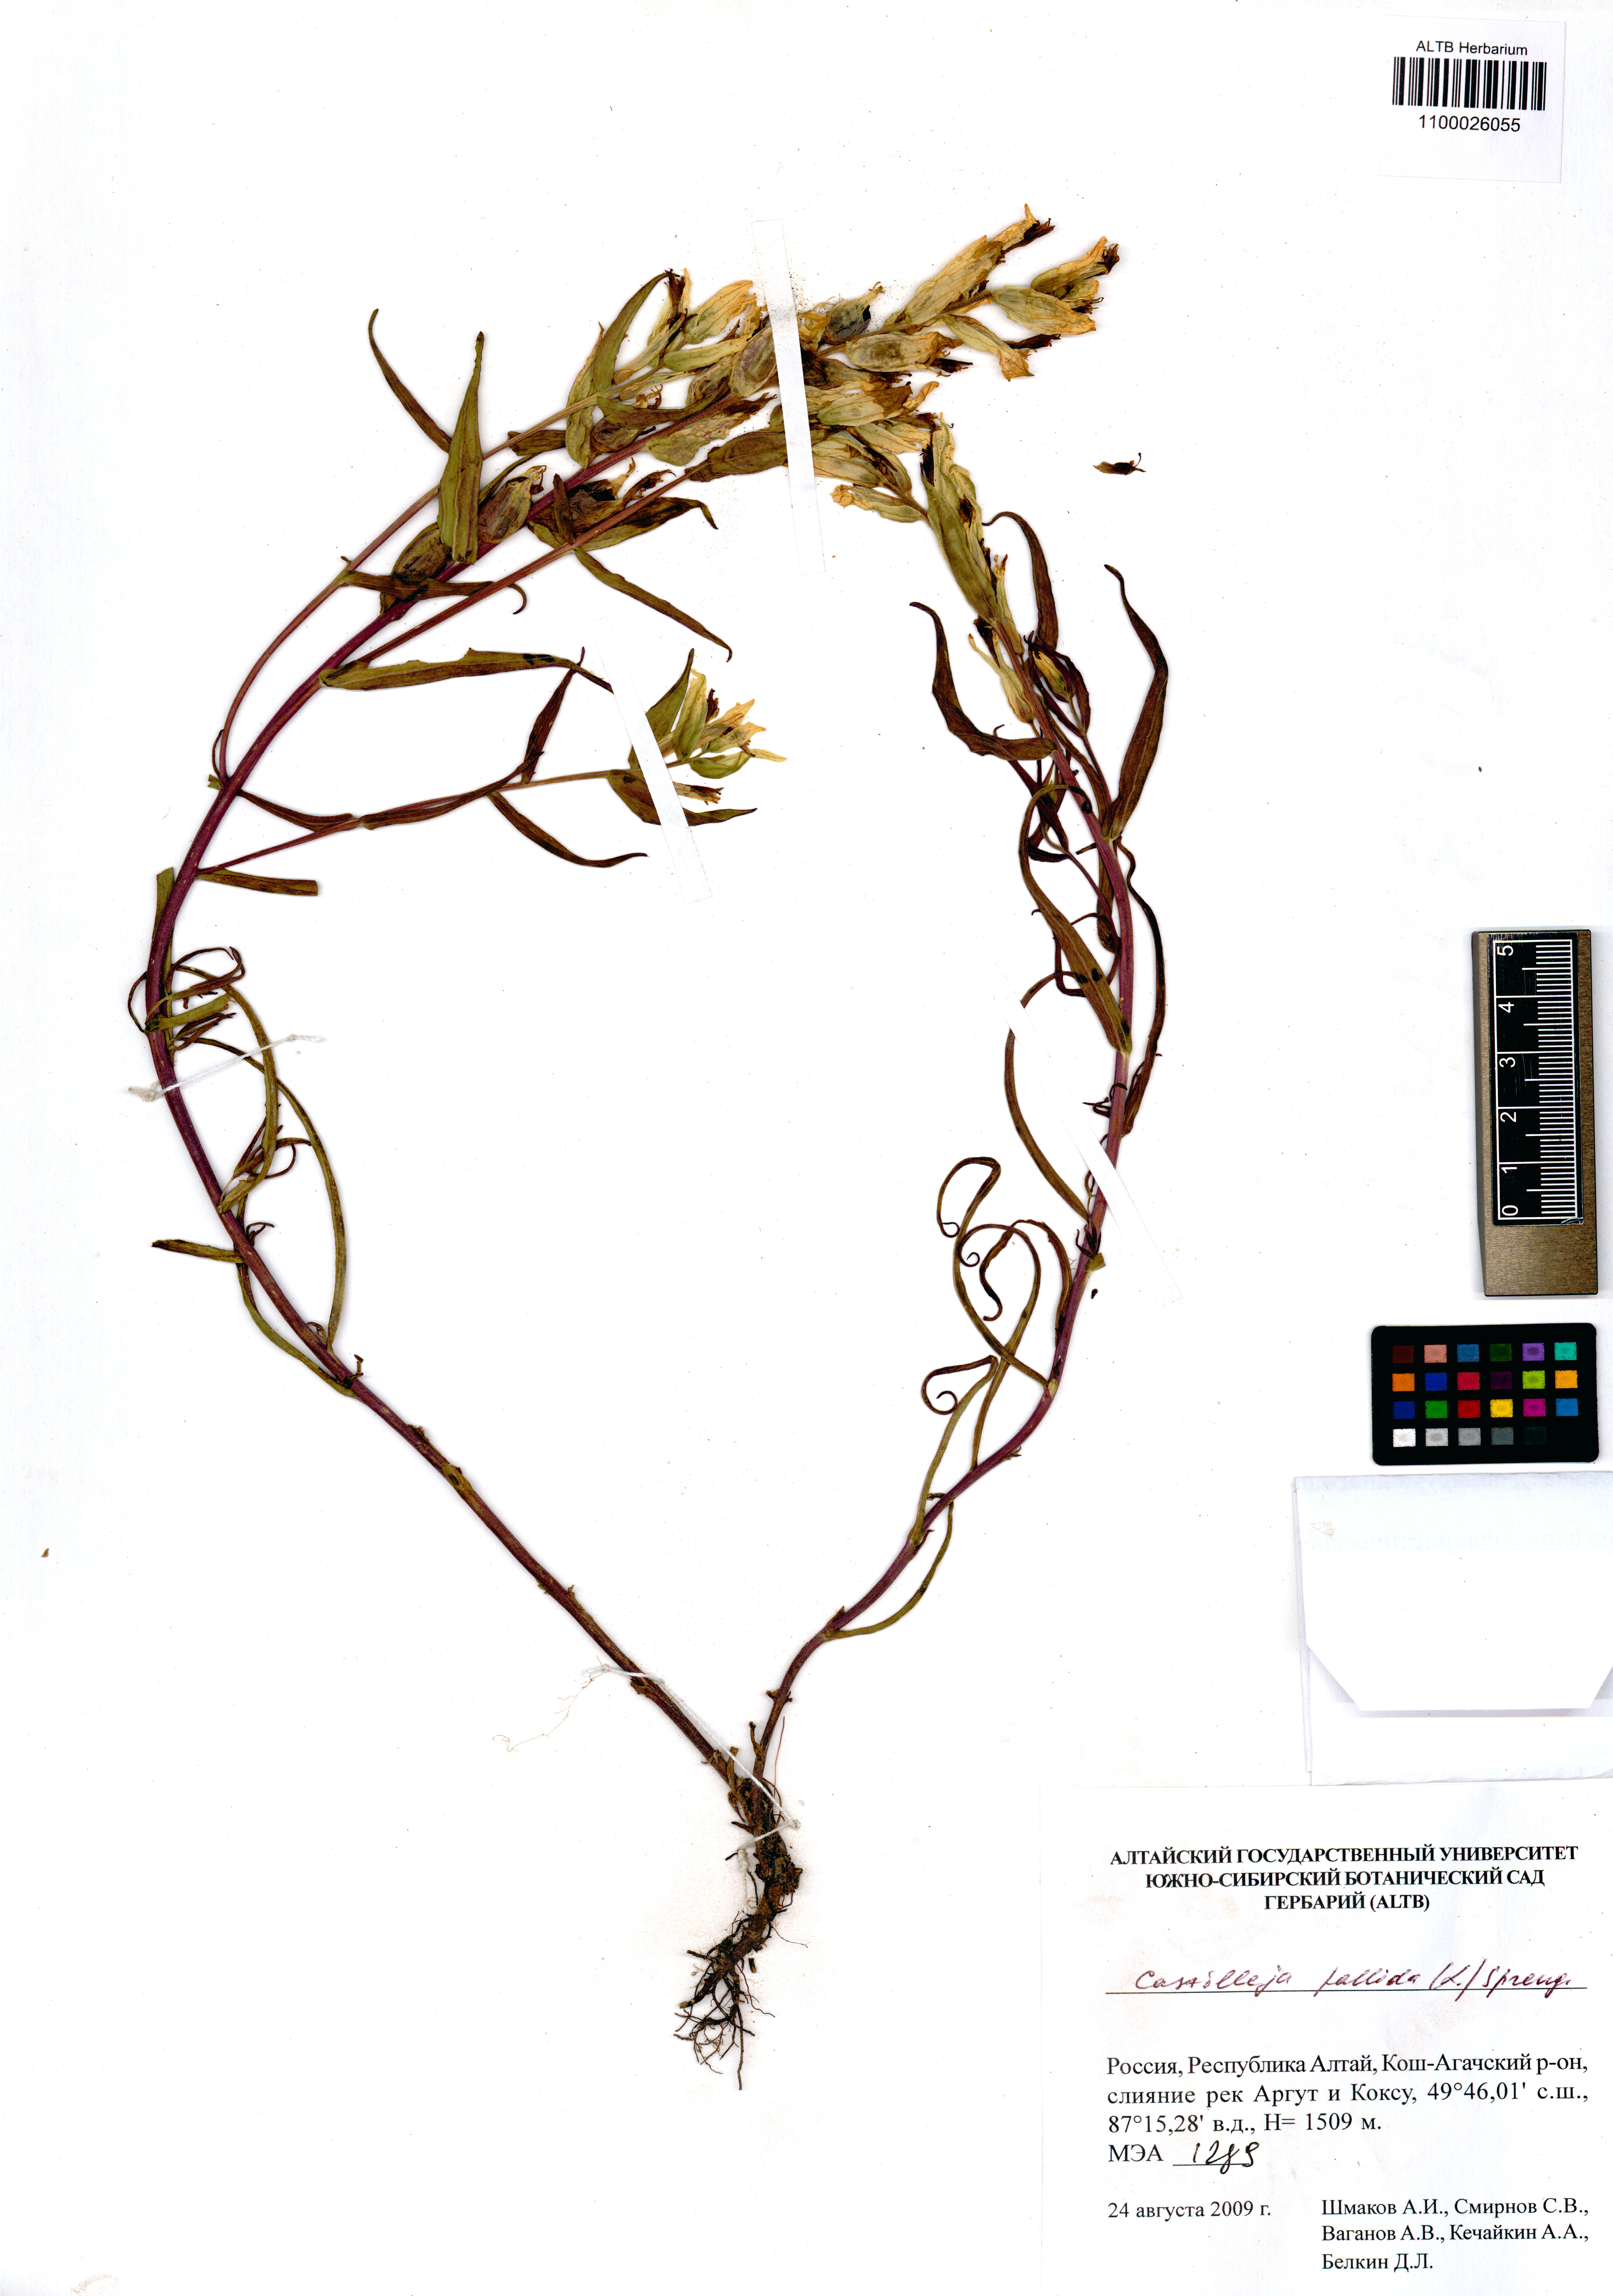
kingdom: Plantae
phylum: Tracheophyta
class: Magnoliopsida
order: Lamiales
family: Orobanchaceae
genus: Castilleja
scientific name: Castilleja pallida
